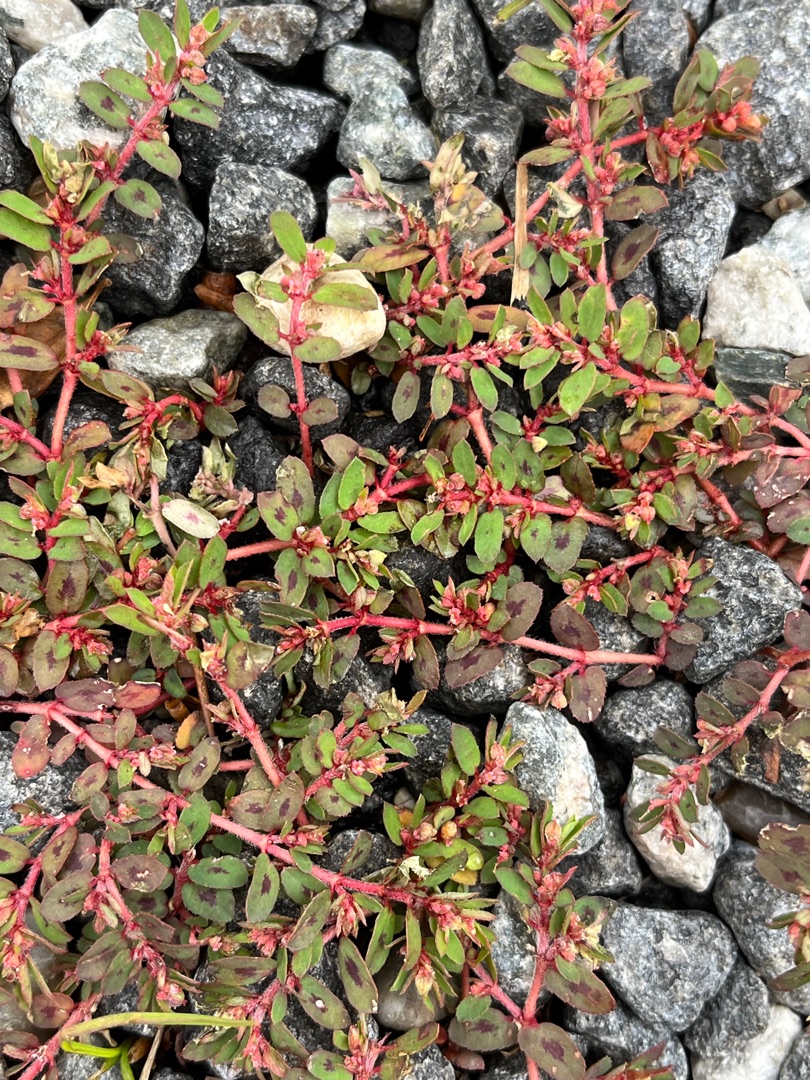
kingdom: Plantae
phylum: Tracheophyta
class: Magnoliopsida
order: Malpighiales
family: Euphorbiaceae
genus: Euphorbia
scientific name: Euphorbia maculata
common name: Plet-vortemælk
